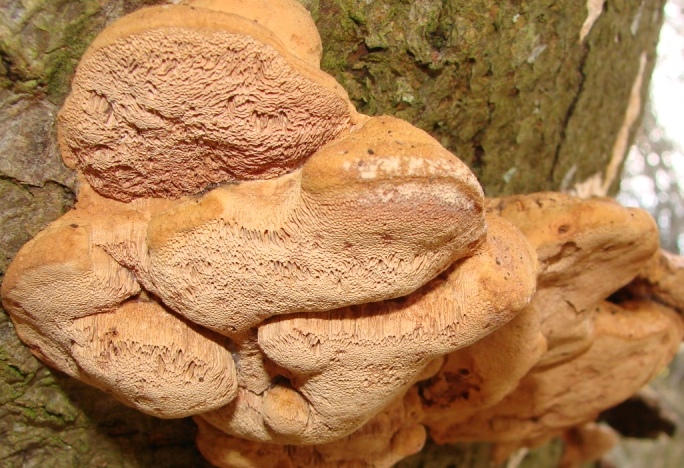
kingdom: Fungi
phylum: Basidiomycota
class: Agaricomycetes
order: Polyporales
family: Phanerochaetaceae
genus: Hapalopilus
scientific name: Hapalopilus rutilans
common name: rødlig okkerporesvamp
